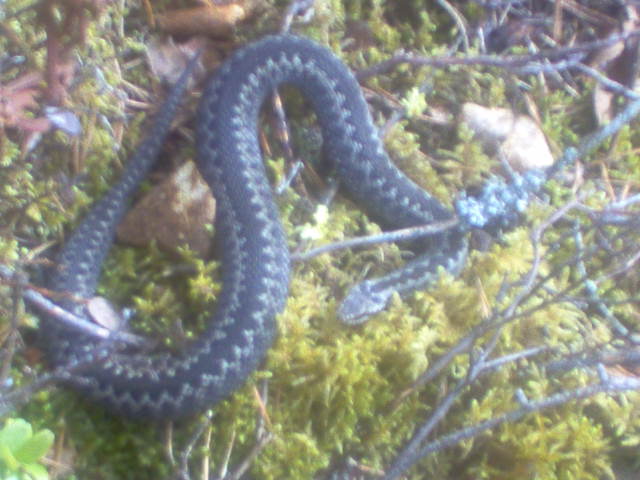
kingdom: Animalia
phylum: Chordata
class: Squamata
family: Viperidae
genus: Vipera
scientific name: Vipera berus
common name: Adder
